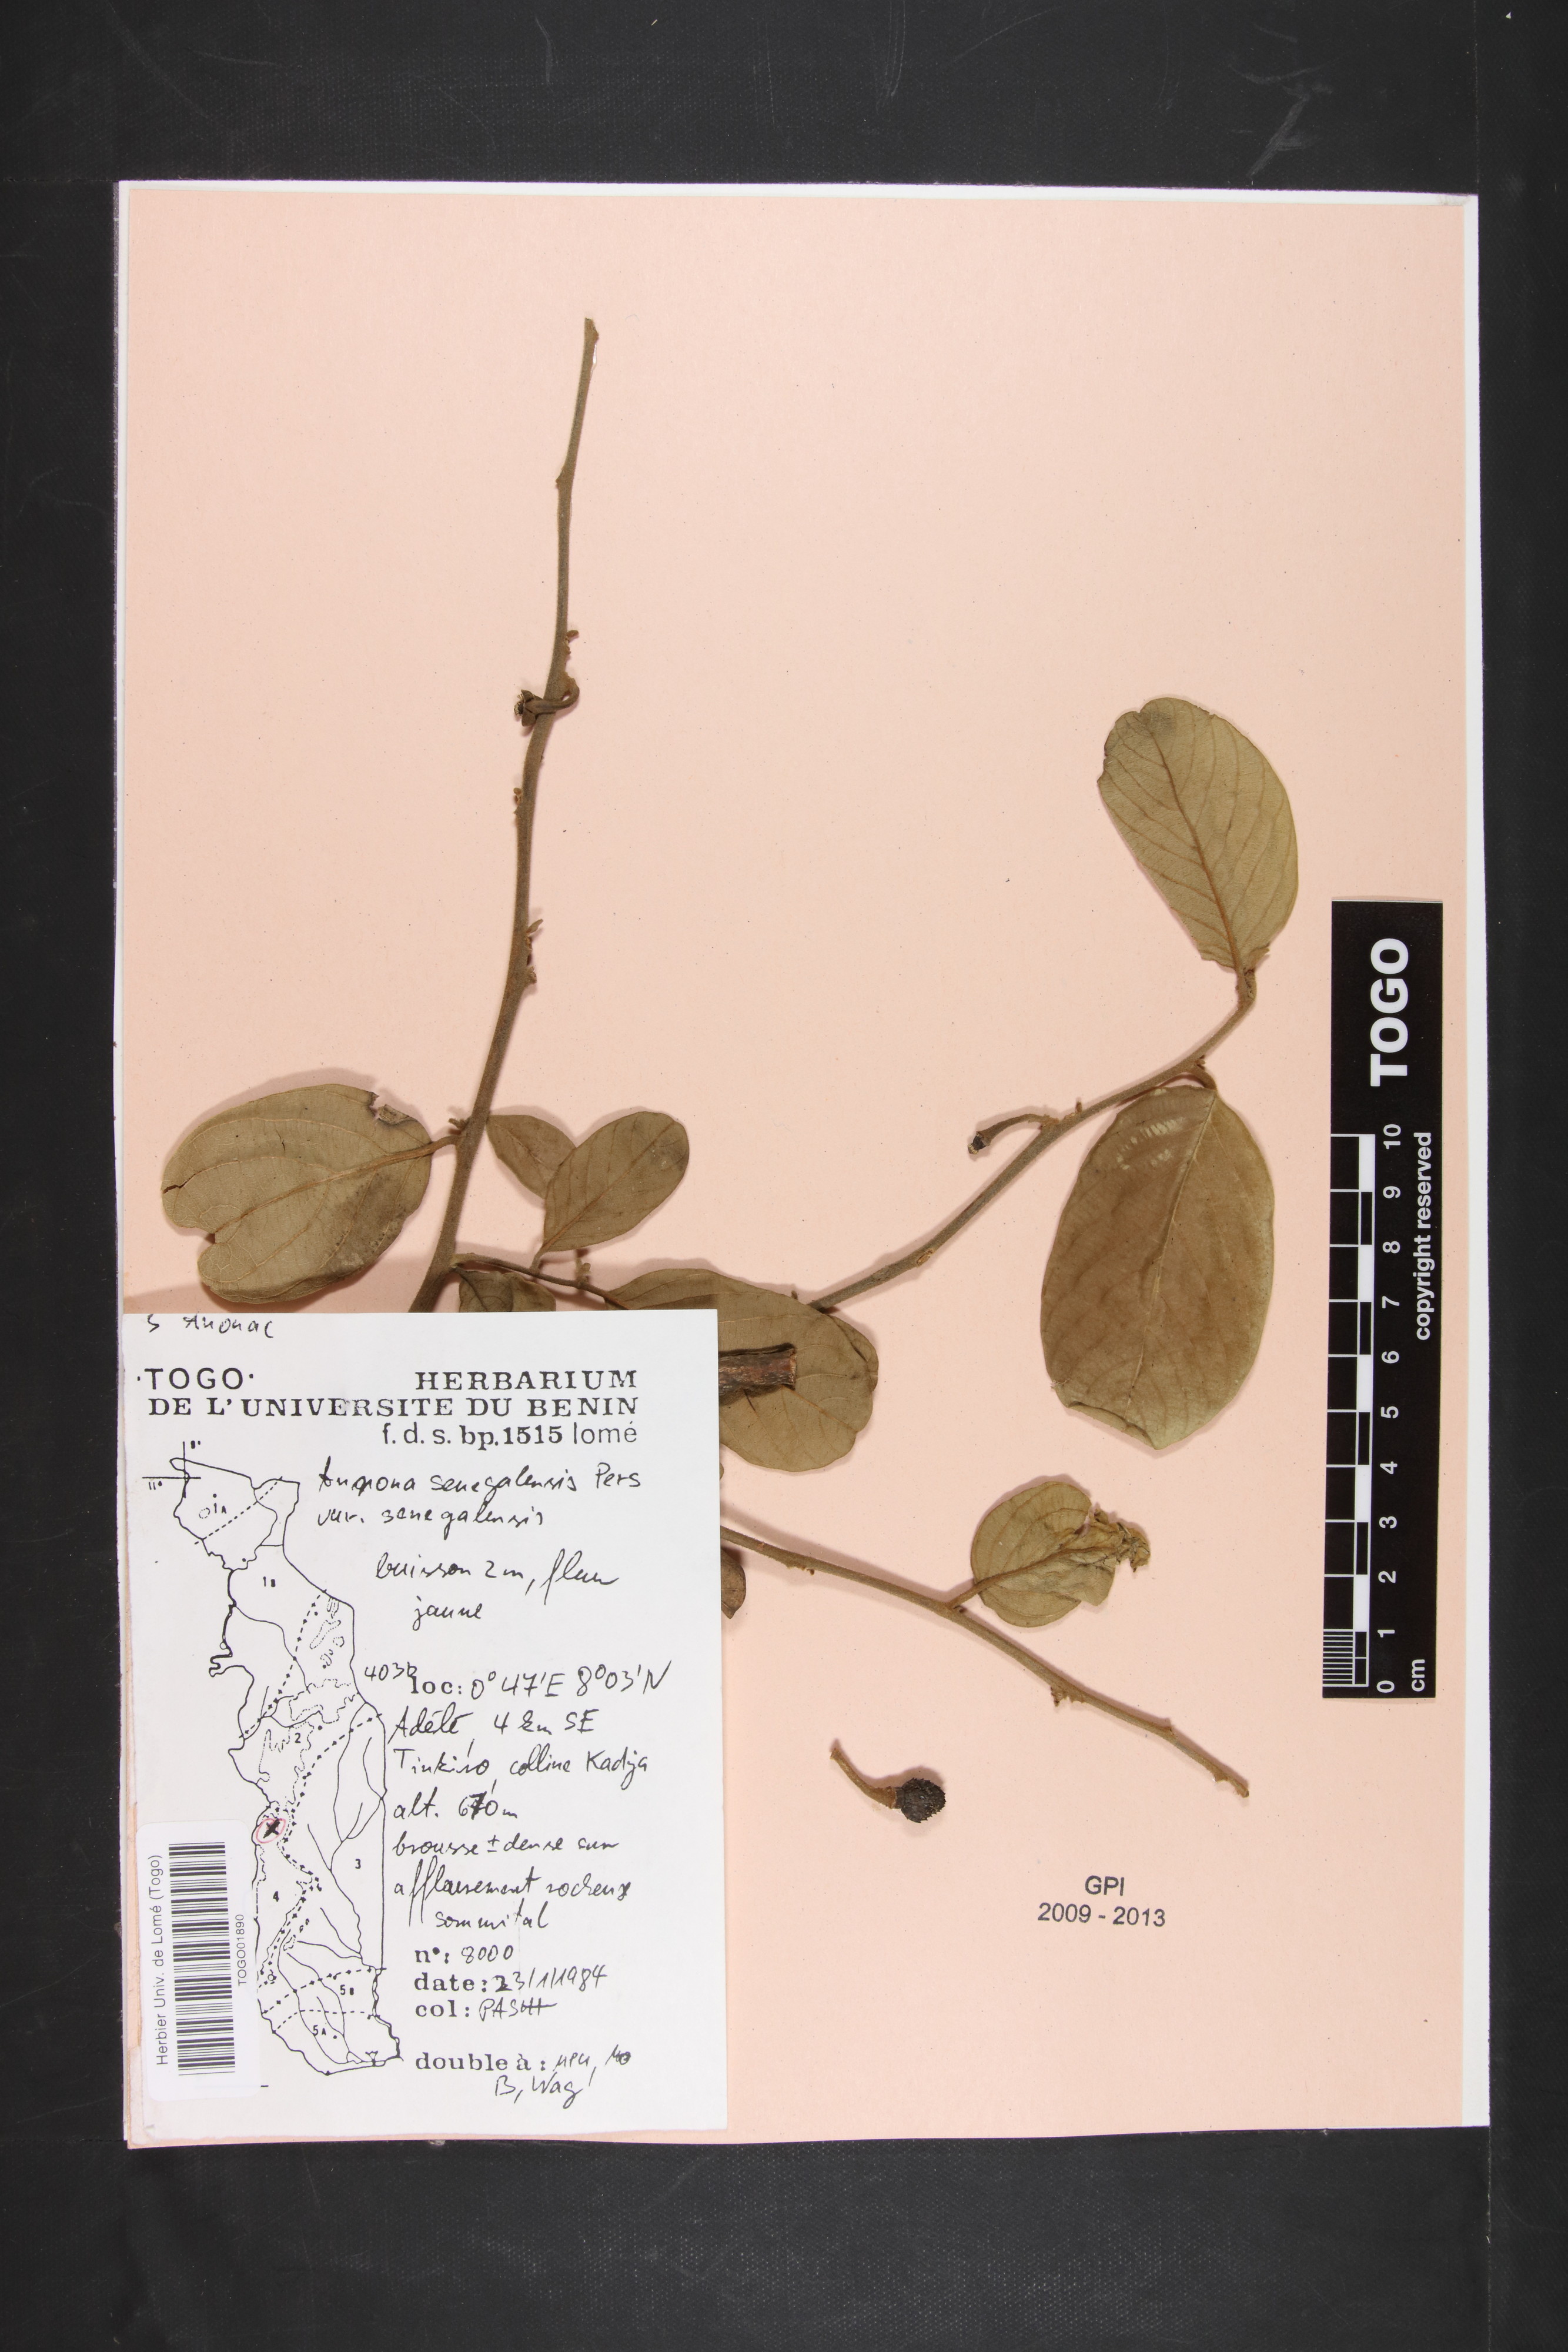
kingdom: Plantae
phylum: Tracheophyta
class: Magnoliopsida
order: Magnoliales
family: Annonaceae
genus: Annona
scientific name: Annona senegalensis
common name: Wild custard-apple
